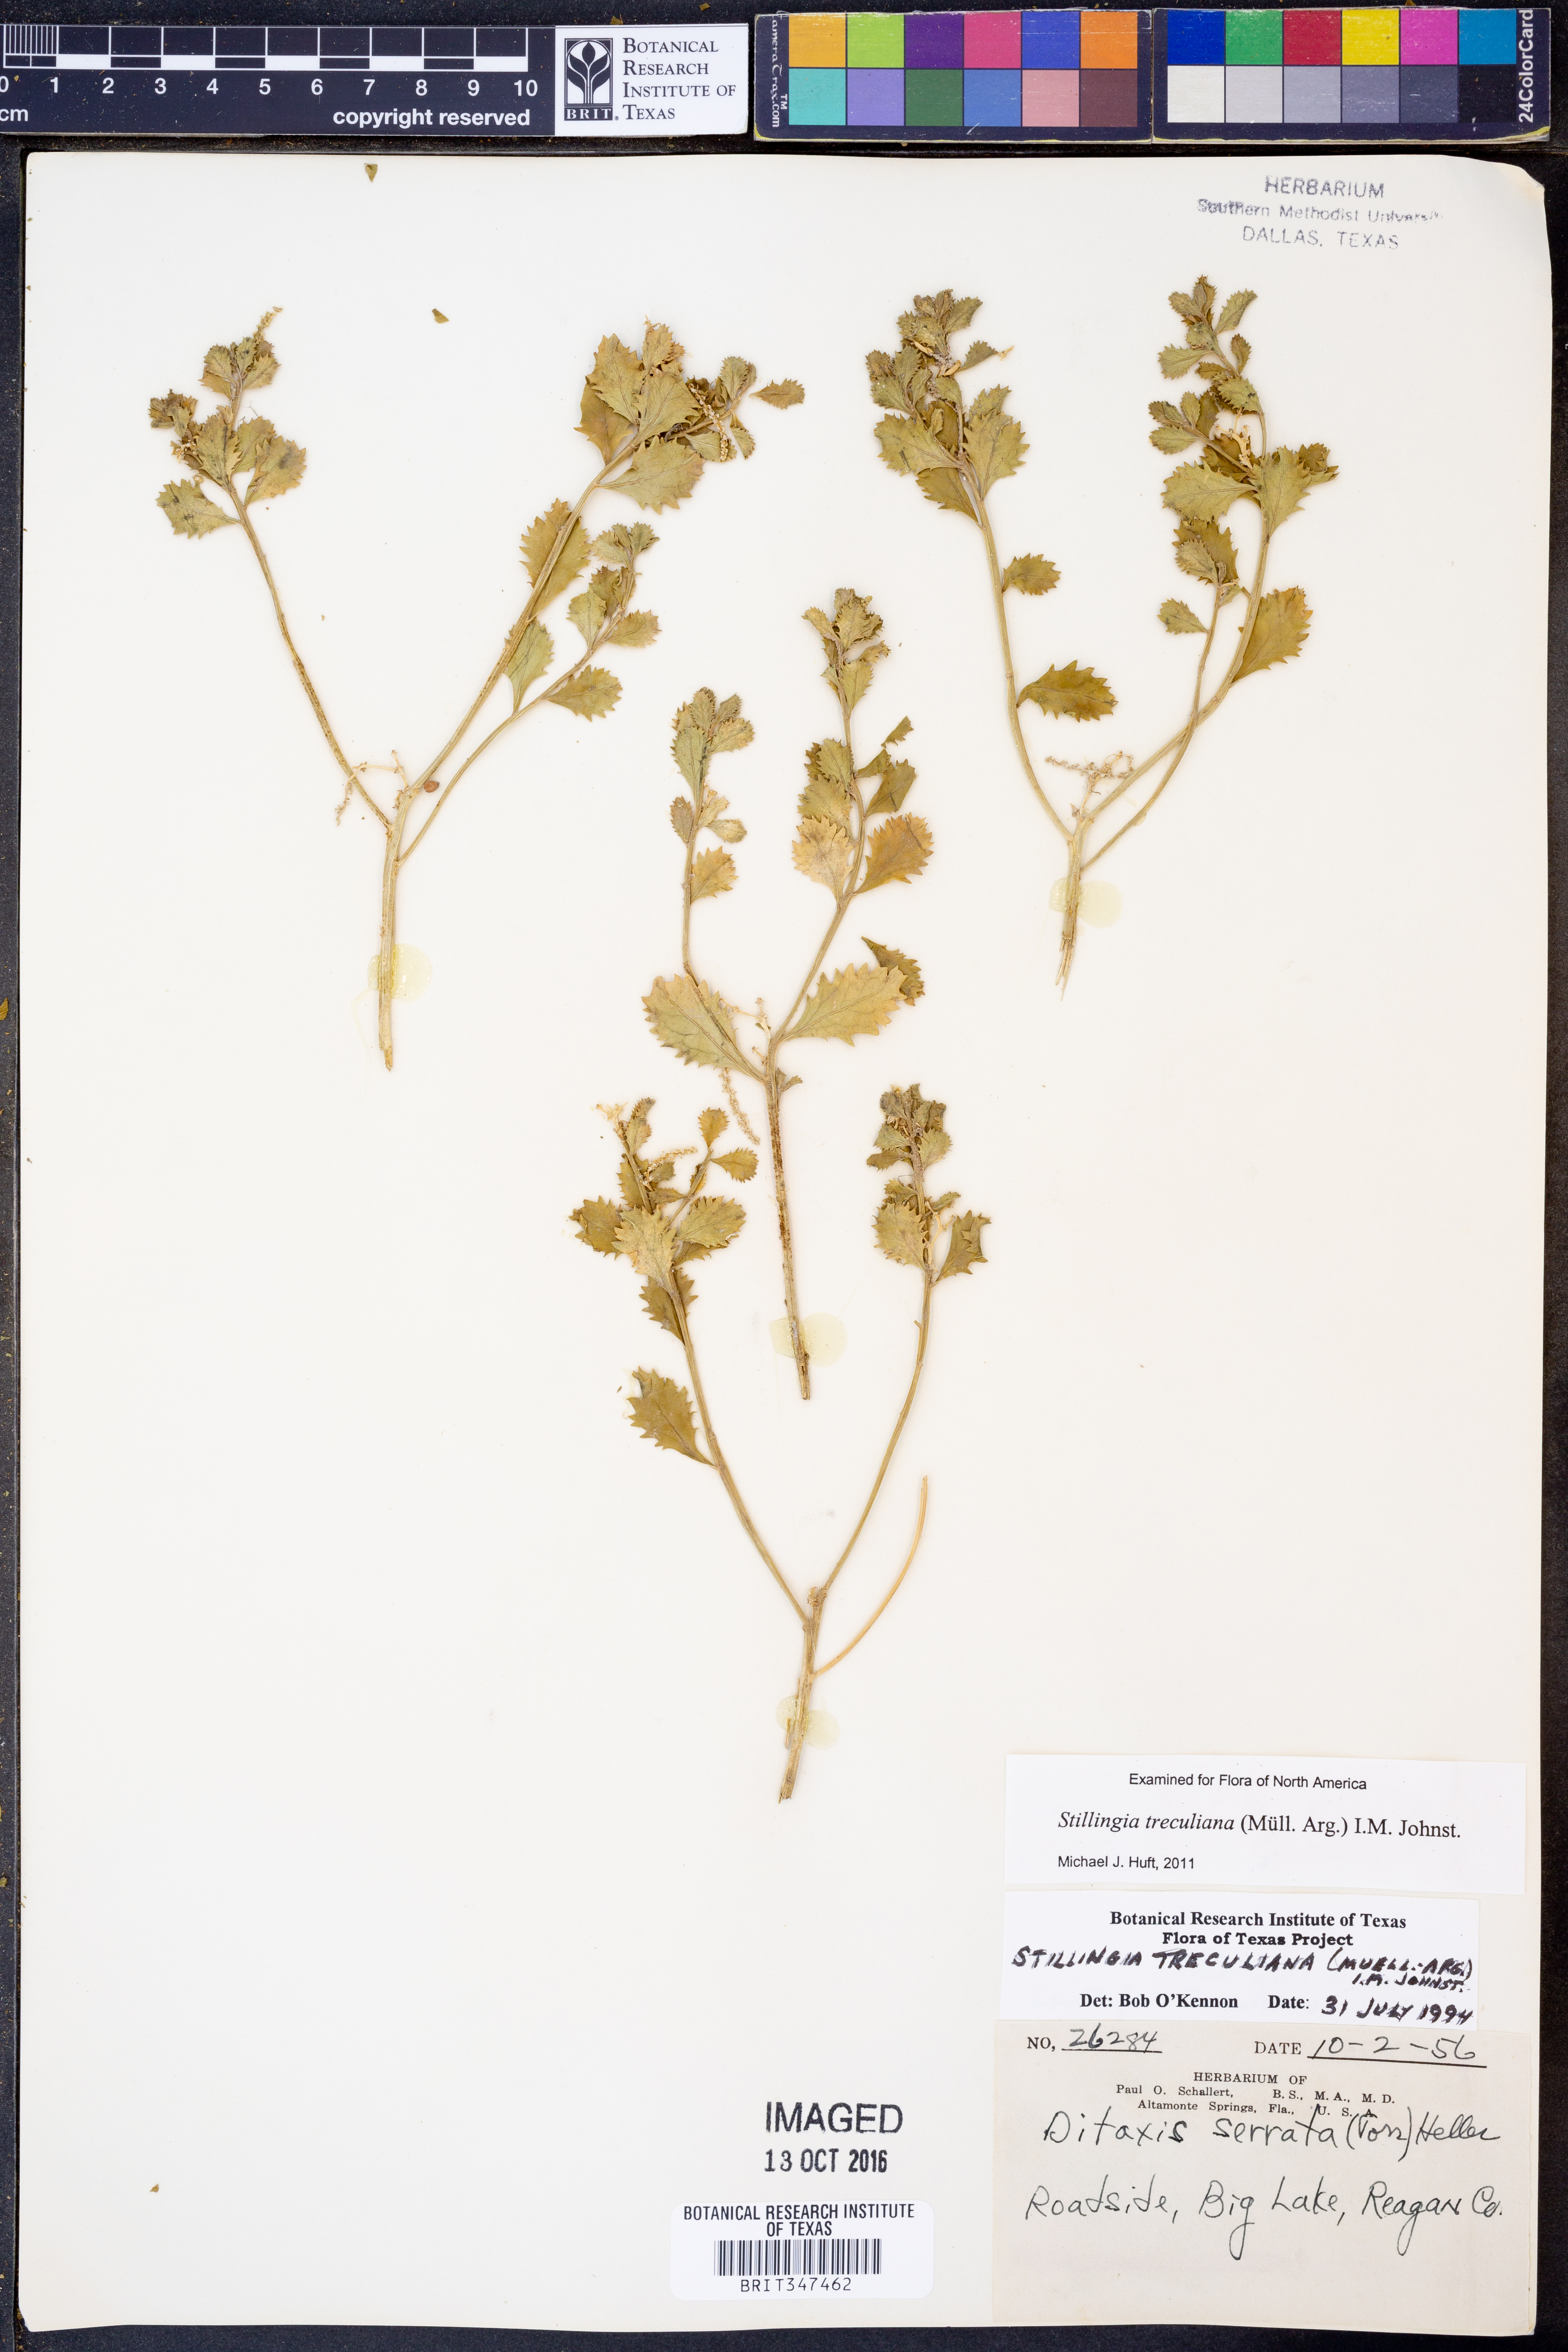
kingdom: Plantae
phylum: Tracheophyta
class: Magnoliopsida
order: Malpighiales
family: Euphorbiaceae
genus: Stillingia
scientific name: Stillingia treculiana
